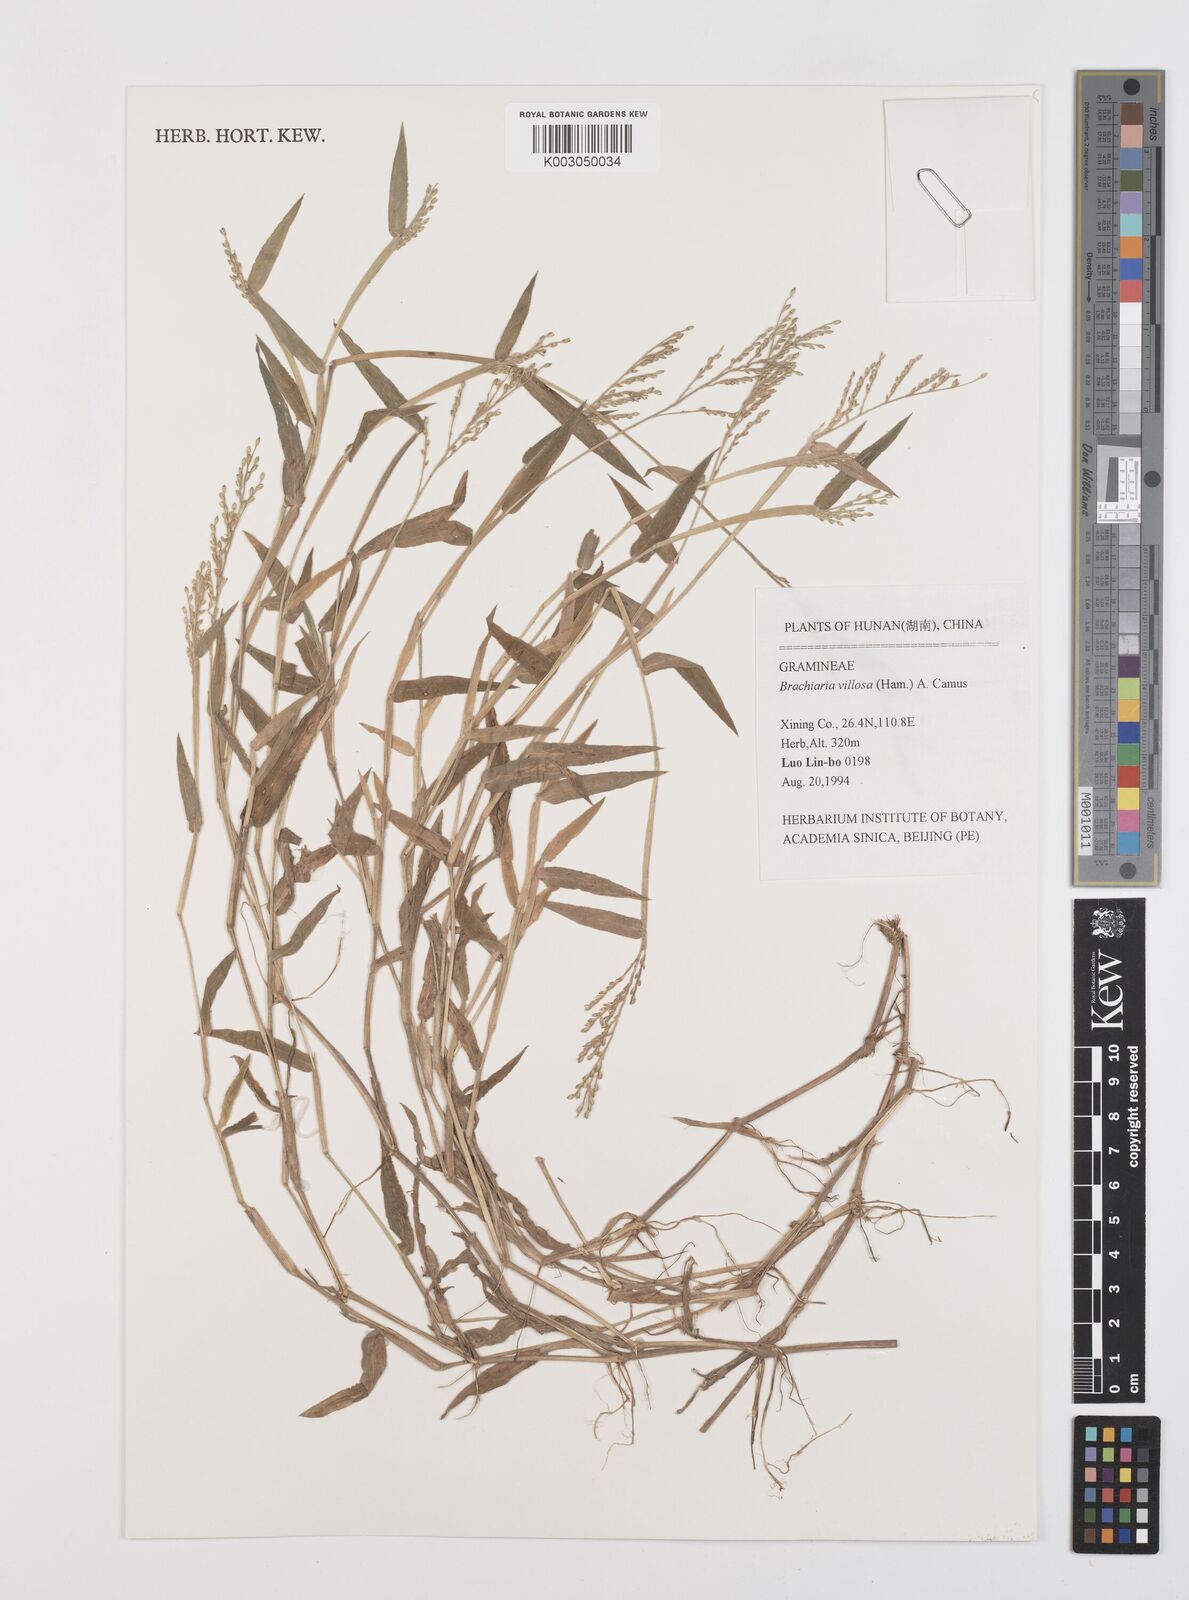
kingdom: Plantae
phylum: Tracheophyta
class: Liliopsida
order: Poales
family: Poaceae
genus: Urochloa
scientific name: Urochloa villosa
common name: Hairy signalgrass
